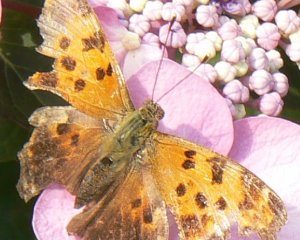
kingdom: Animalia
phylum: Arthropoda
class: Insecta
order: Lepidoptera
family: Nymphalidae
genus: Polygonia
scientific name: Polygonia comma
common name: Eastern Comma
